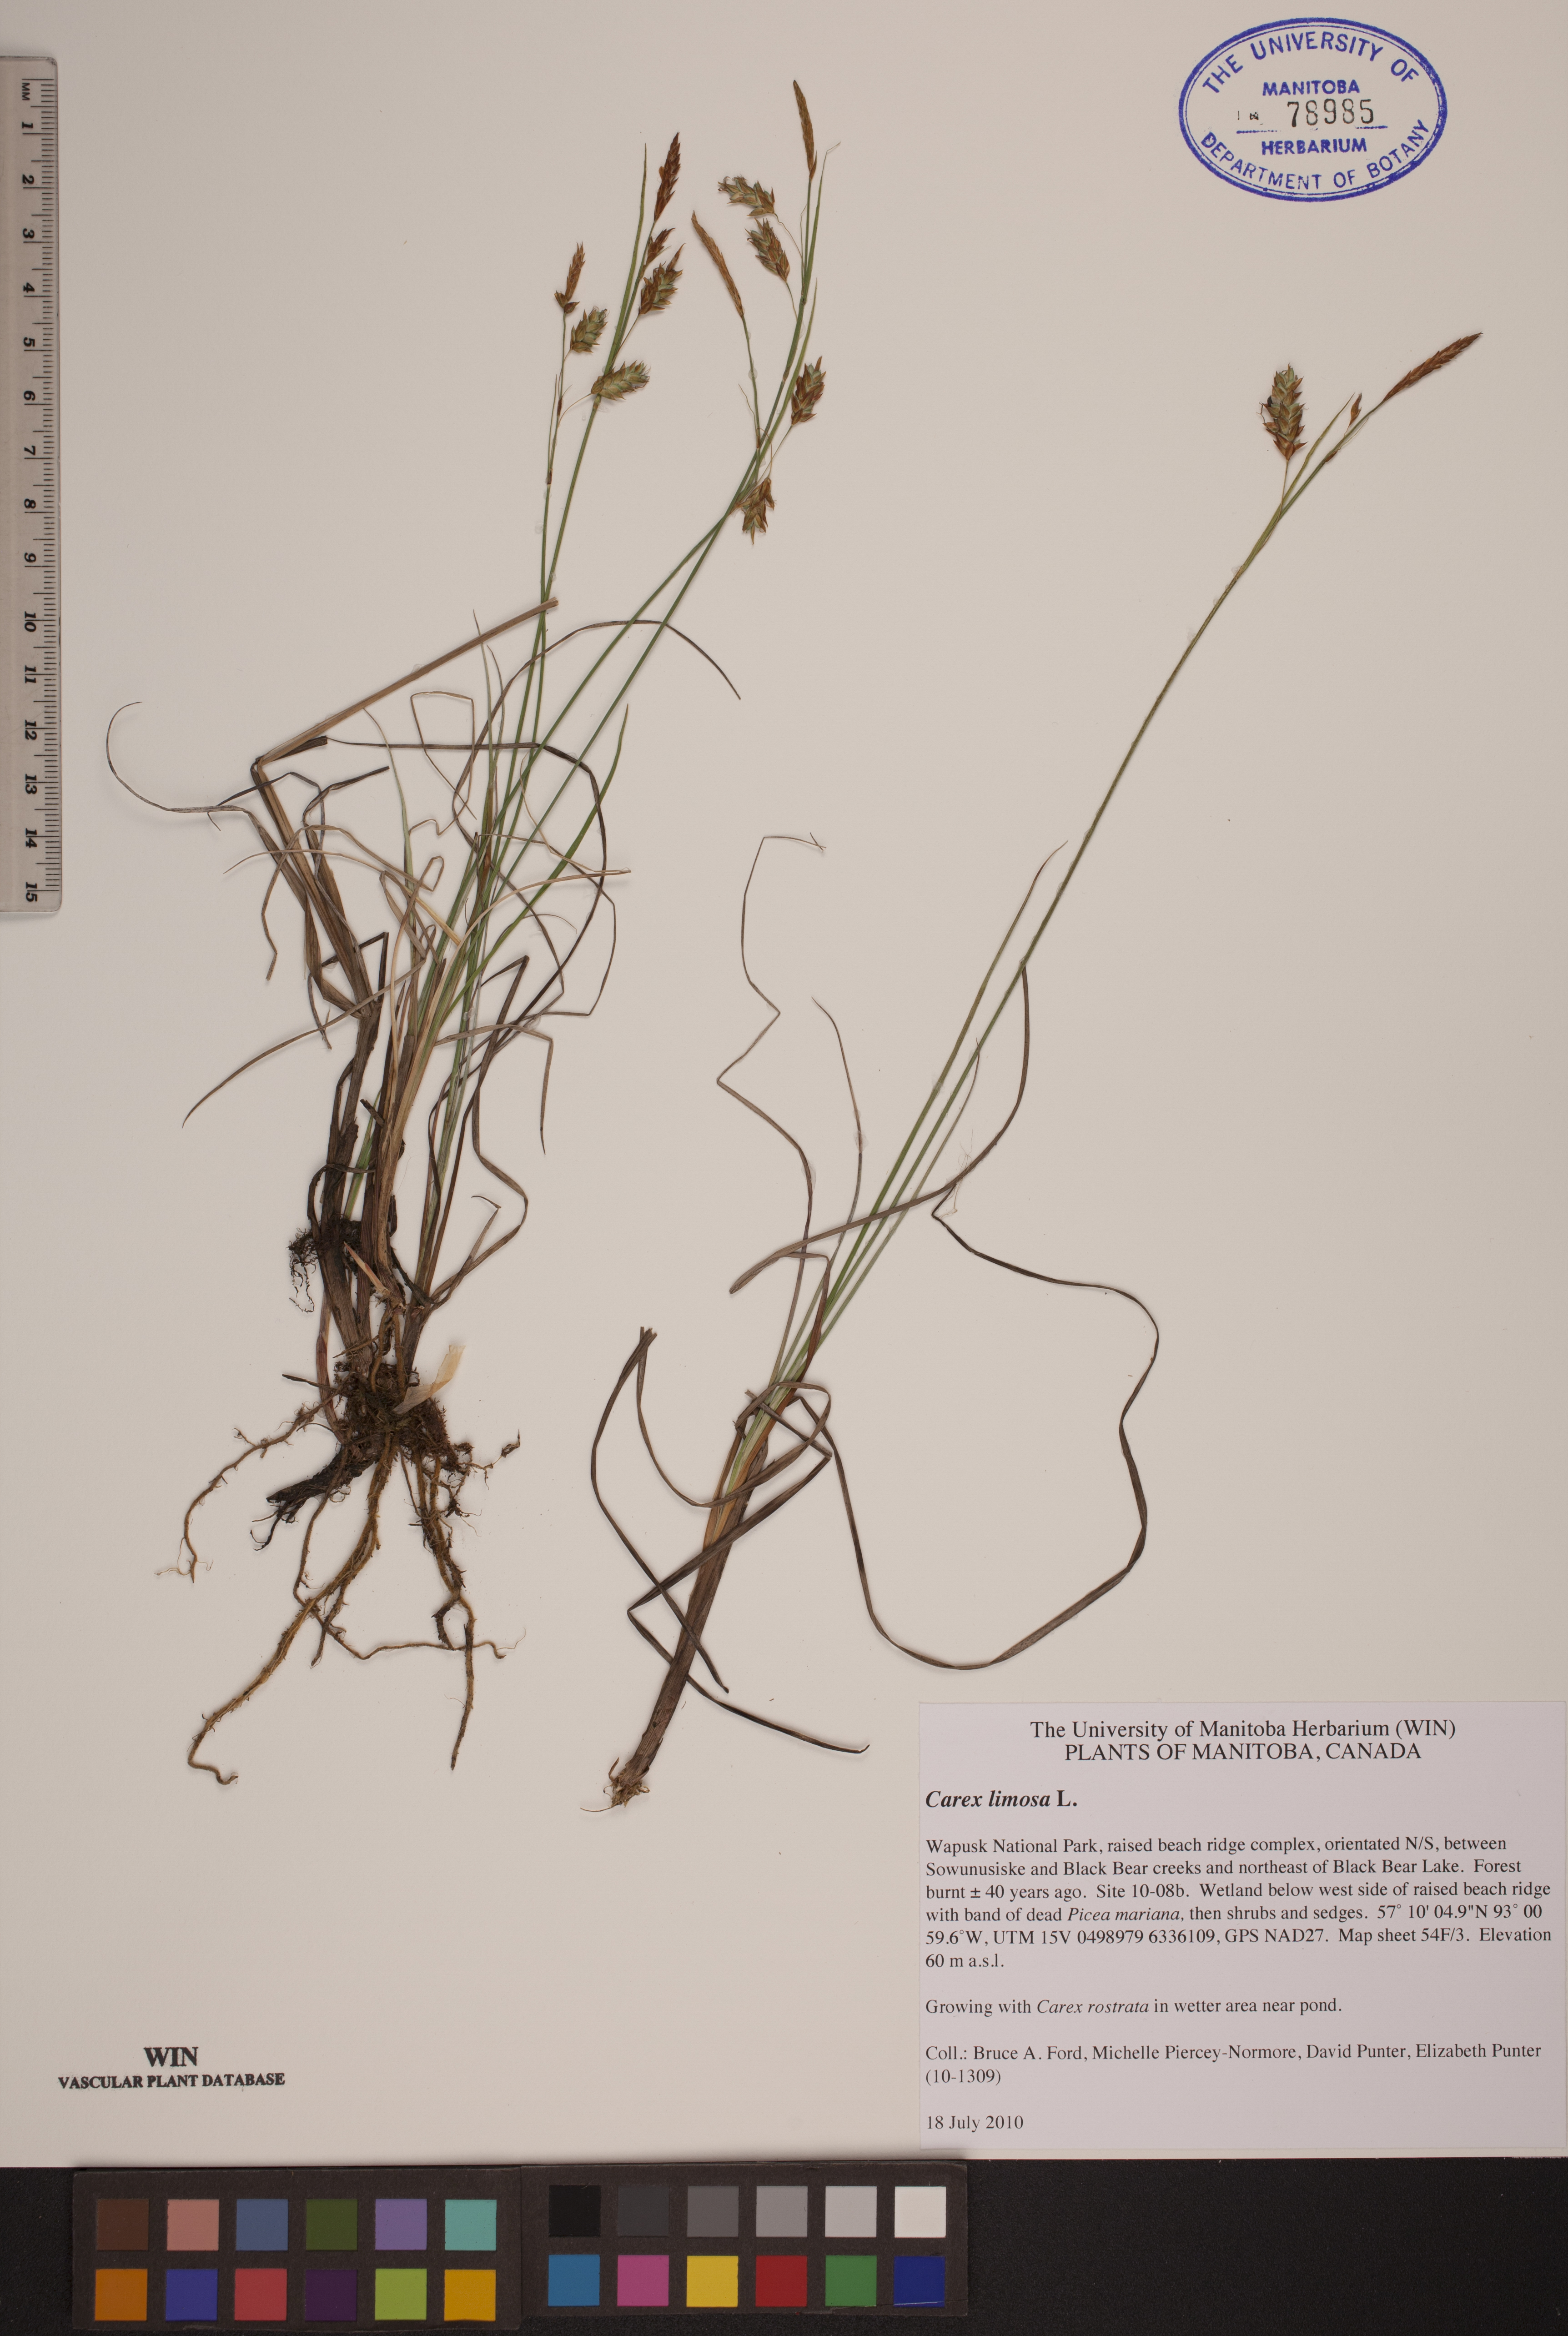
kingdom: Plantae
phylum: Tracheophyta
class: Liliopsida
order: Poales
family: Cyperaceae
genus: Carex
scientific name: Carex limosa
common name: Bog sedge
